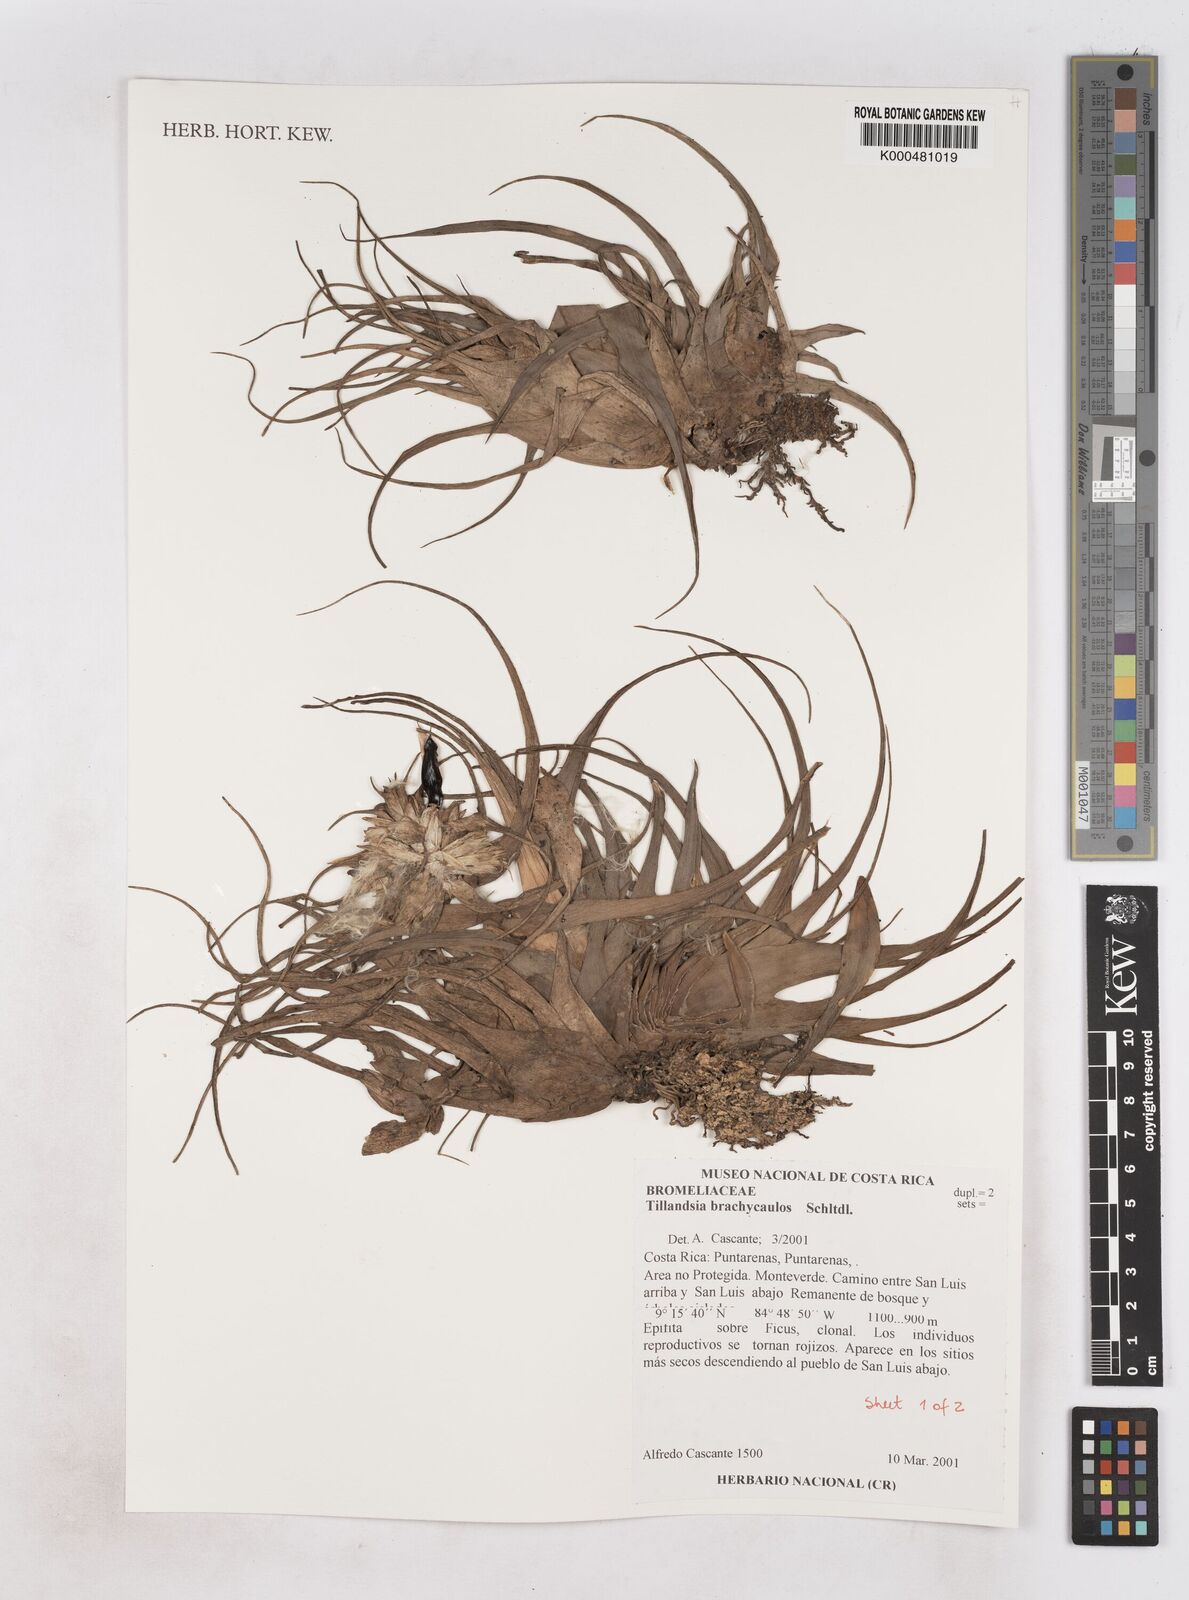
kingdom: Plantae
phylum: Tracheophyta
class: Liliopsida
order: Poales
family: Bromeliaceae
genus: Tillandsia
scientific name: Tillandsia brachycaulos
